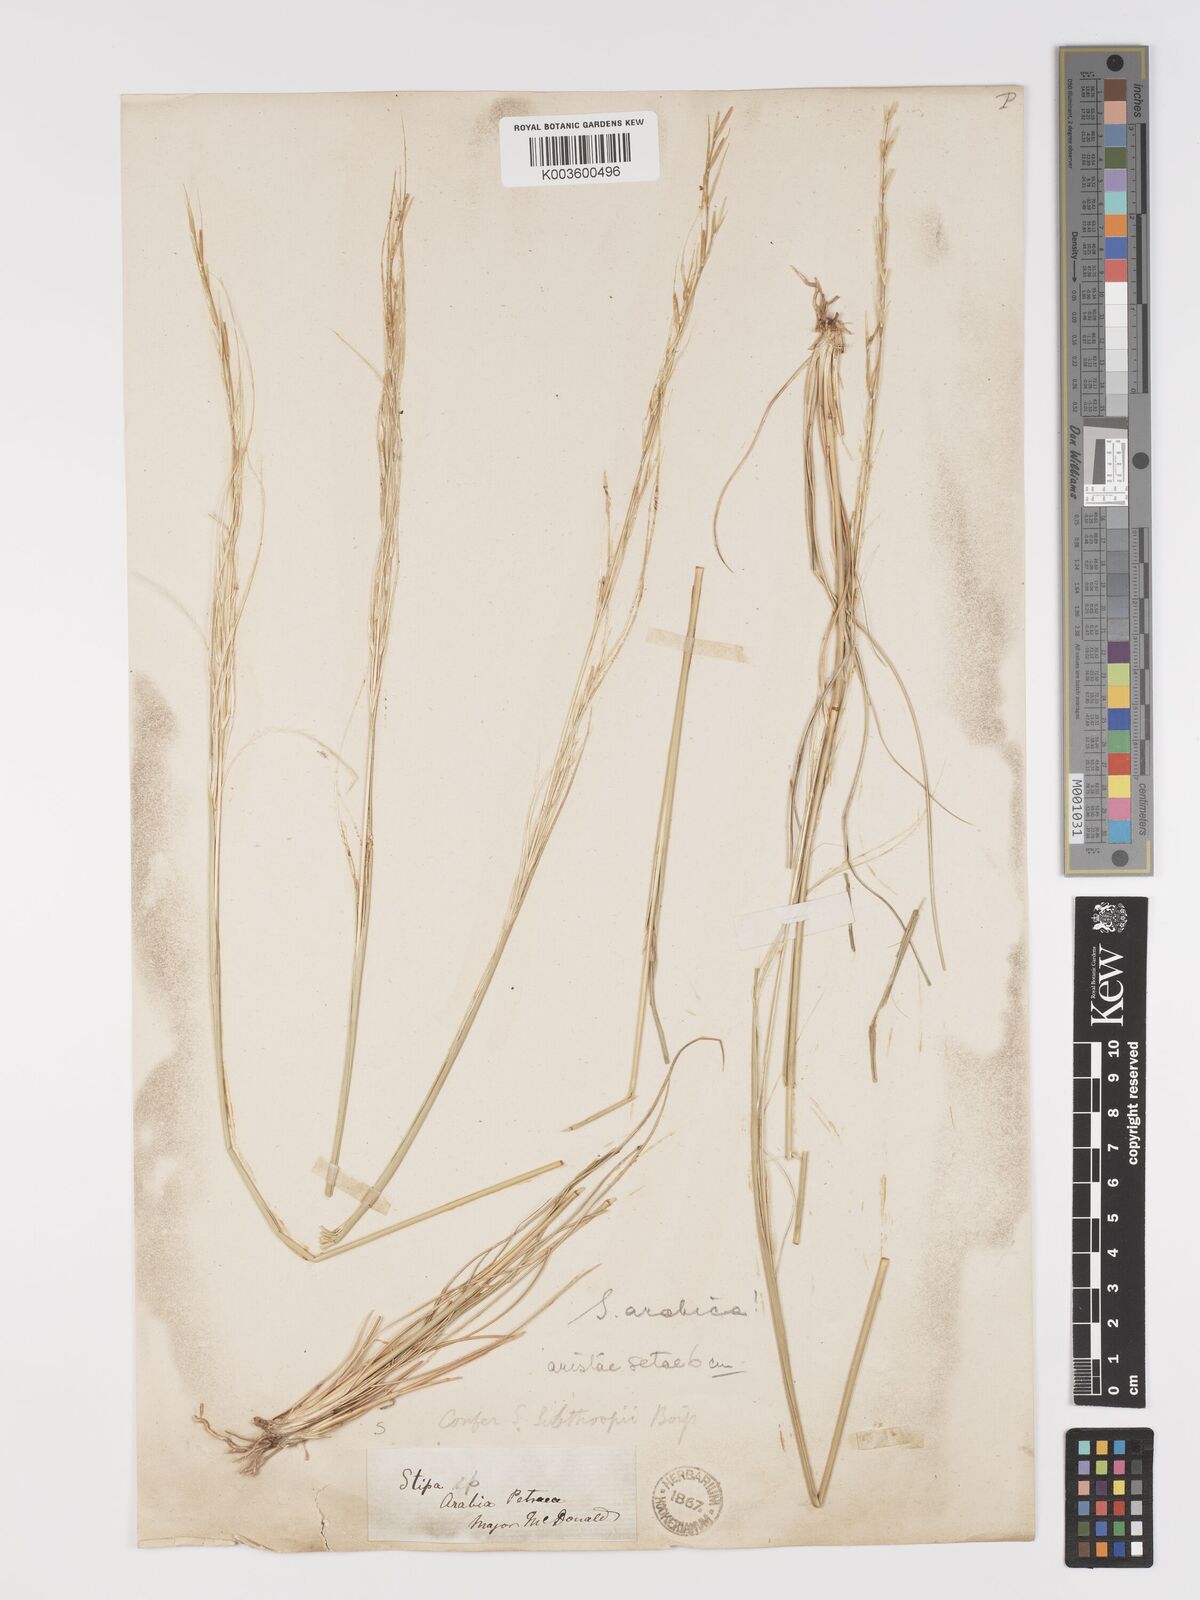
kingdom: Plantae
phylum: Tracheophyta
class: Liliopsida
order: Poales
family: Poaceae
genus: Stipa
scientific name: Stipa arabica
